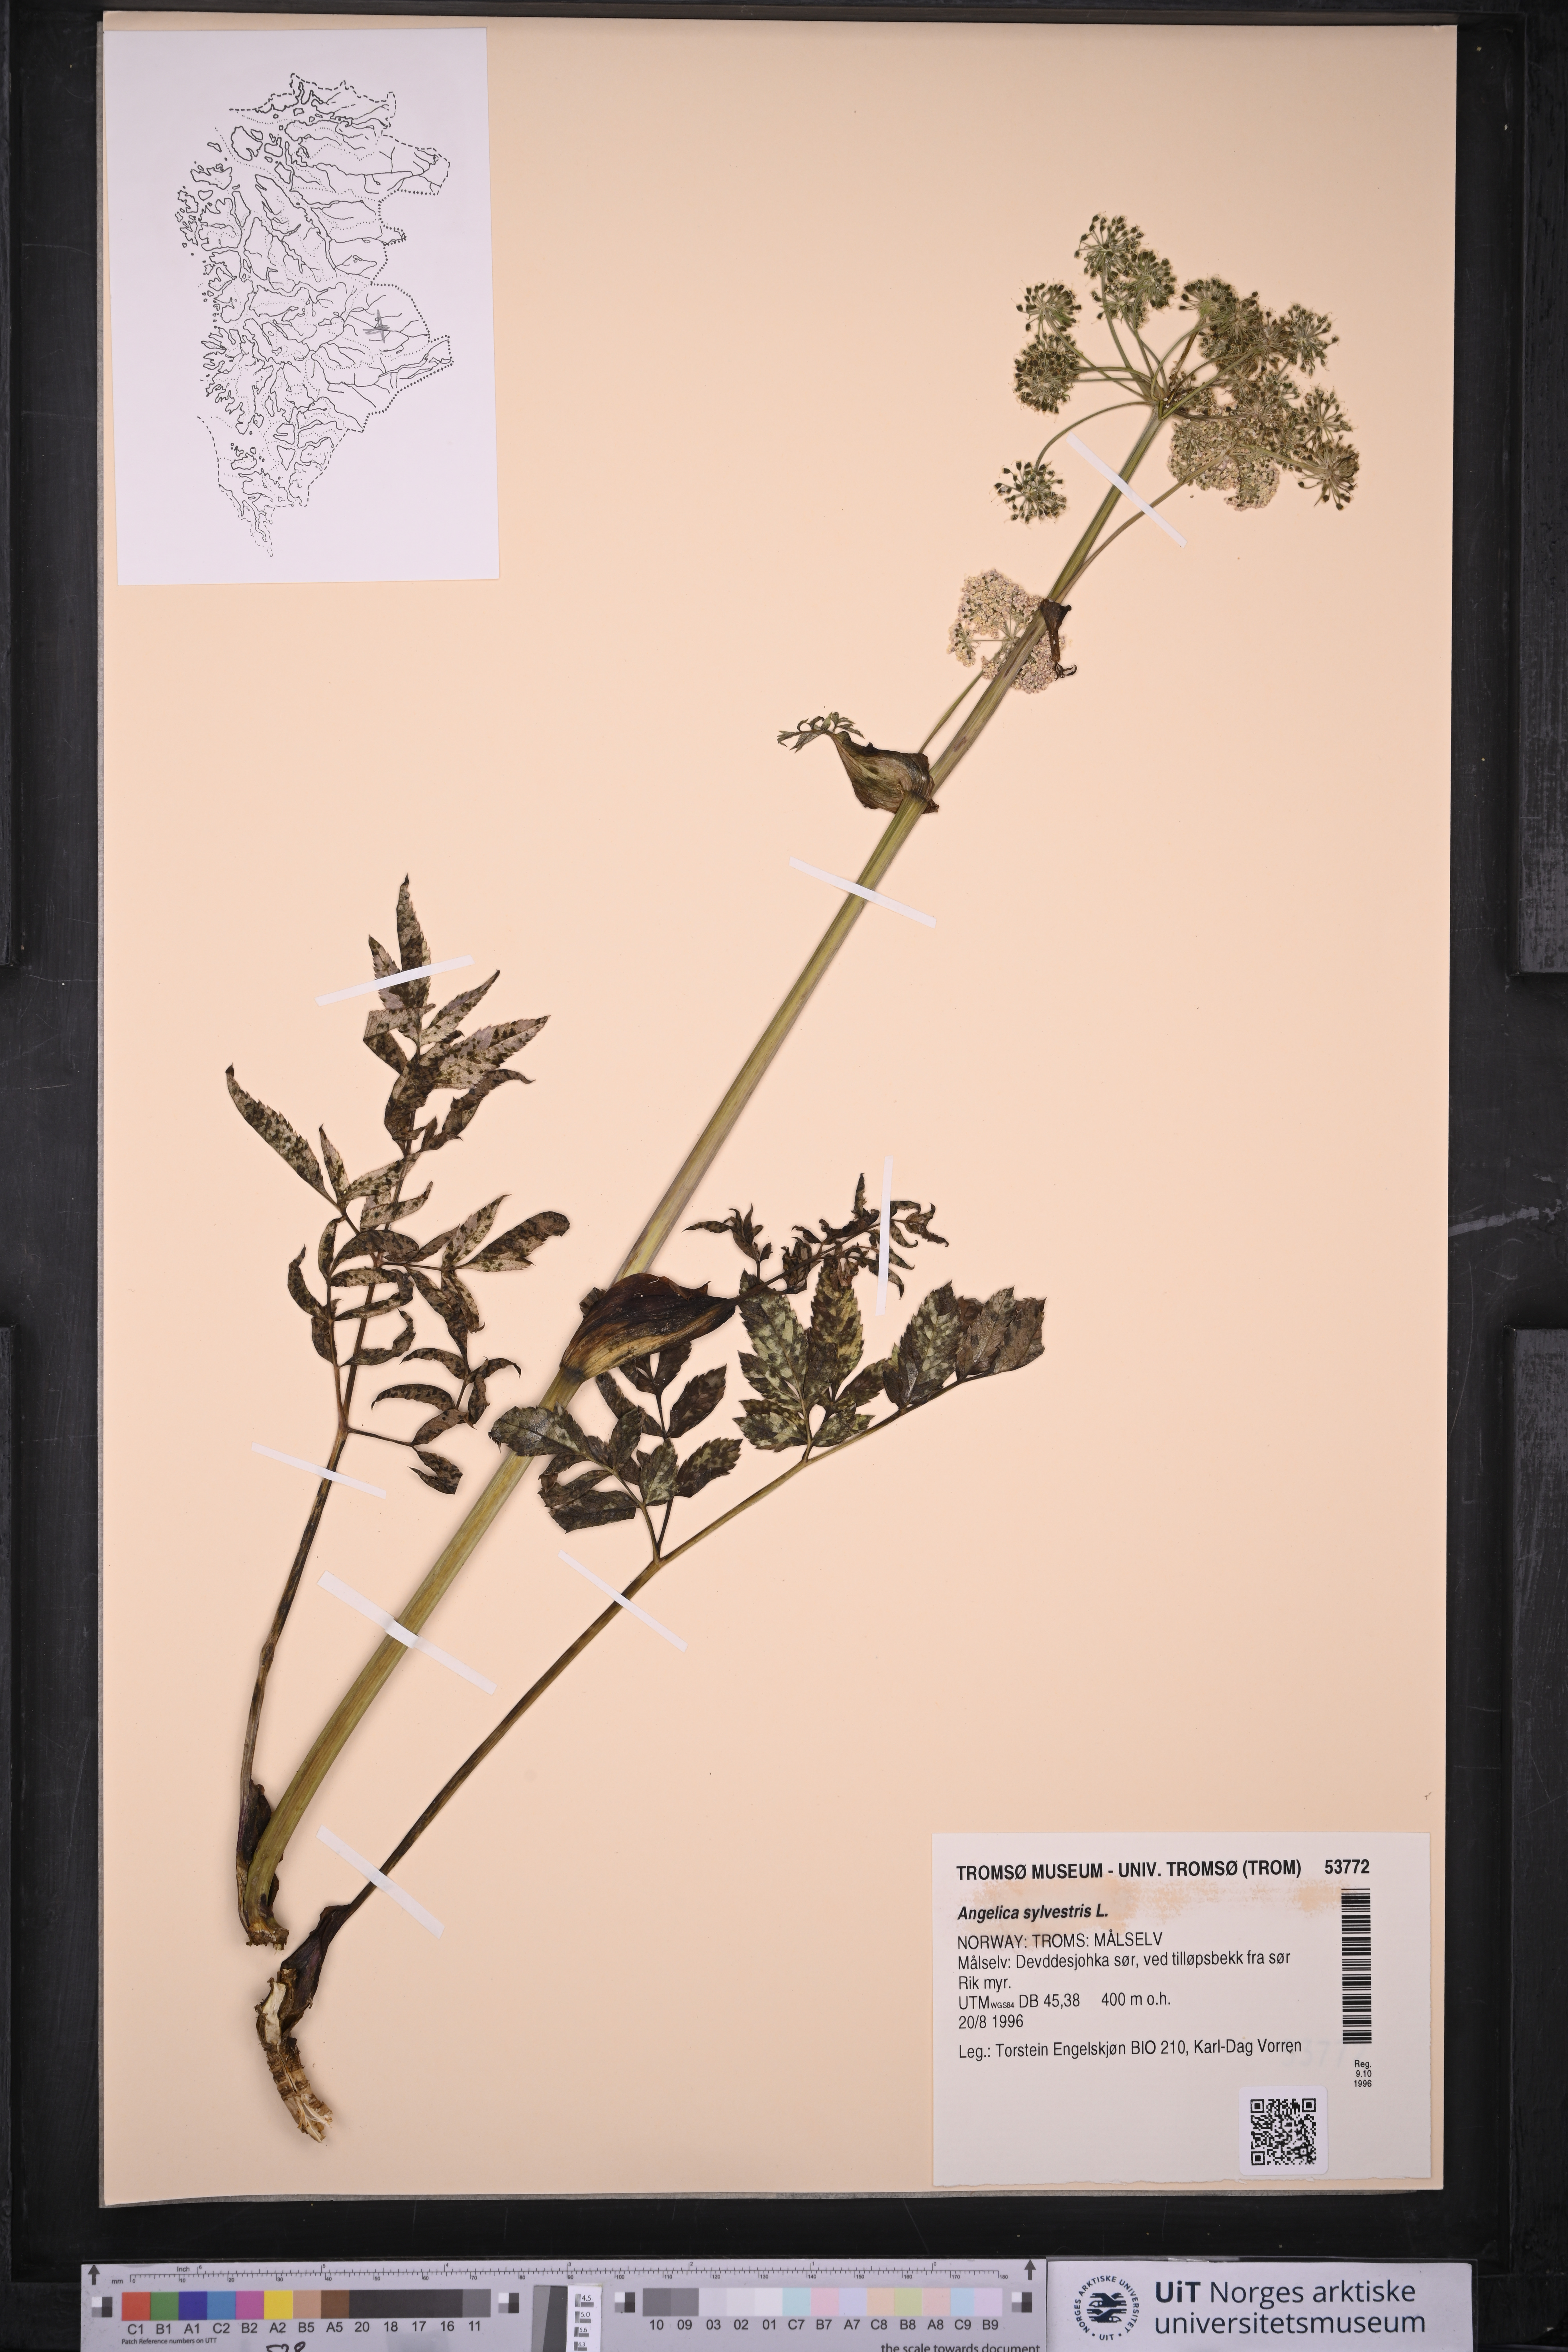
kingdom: Plantae
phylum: Tracheophyta
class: Magnoliopsida
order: Apiales
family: Apiaceae
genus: Angelica
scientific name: Angelica sylvestris
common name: Wild angelica
